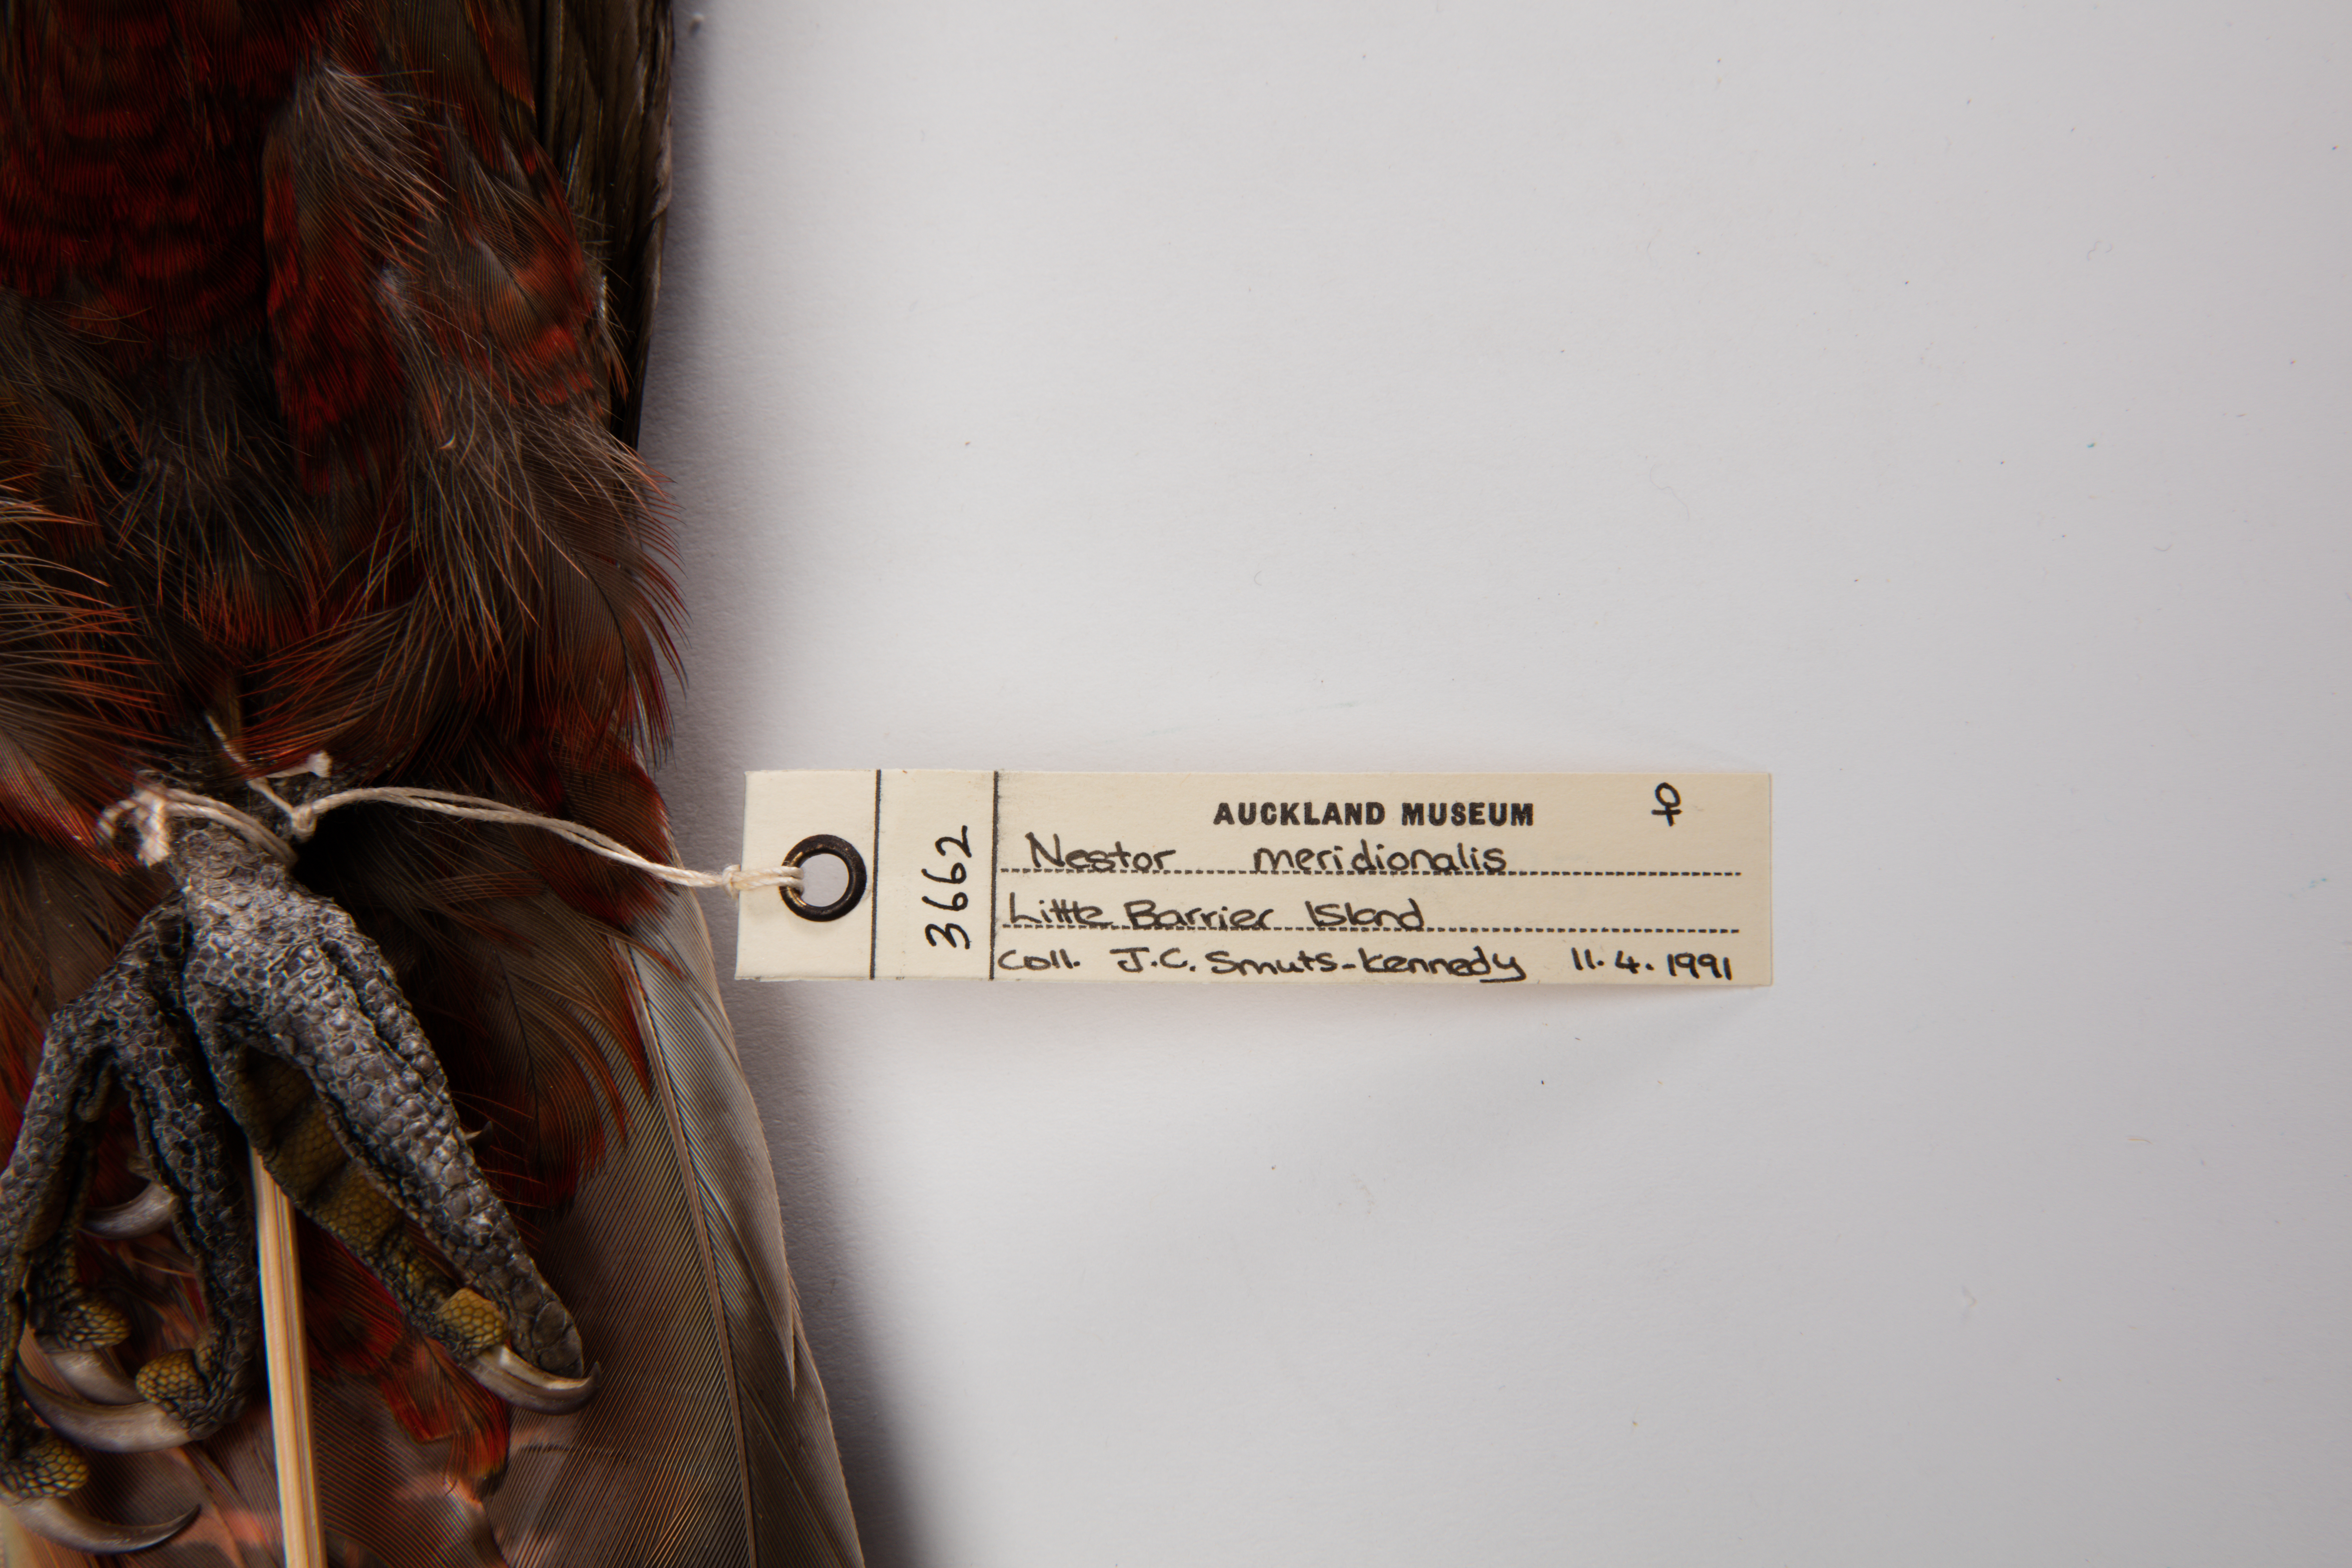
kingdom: Animalia
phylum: Chordata
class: Aves
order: Psittaciformes
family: Psittacidae
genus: Nestor
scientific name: Nestor meridionalis
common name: New zealand kaka
